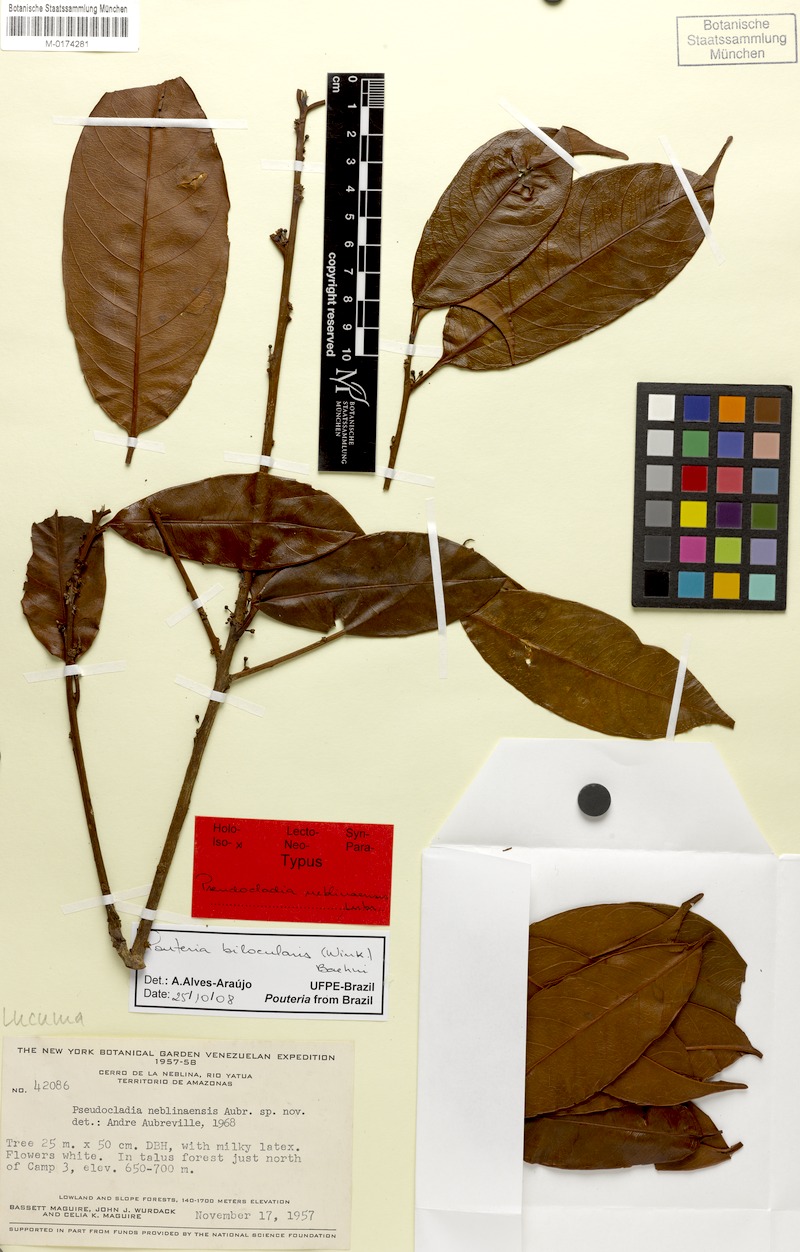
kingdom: Plantae
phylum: Tracheophyta
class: Magnoliopsida
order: Ericales
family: Sapotaceae
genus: Pouteria
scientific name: Pouteria bilocularis
